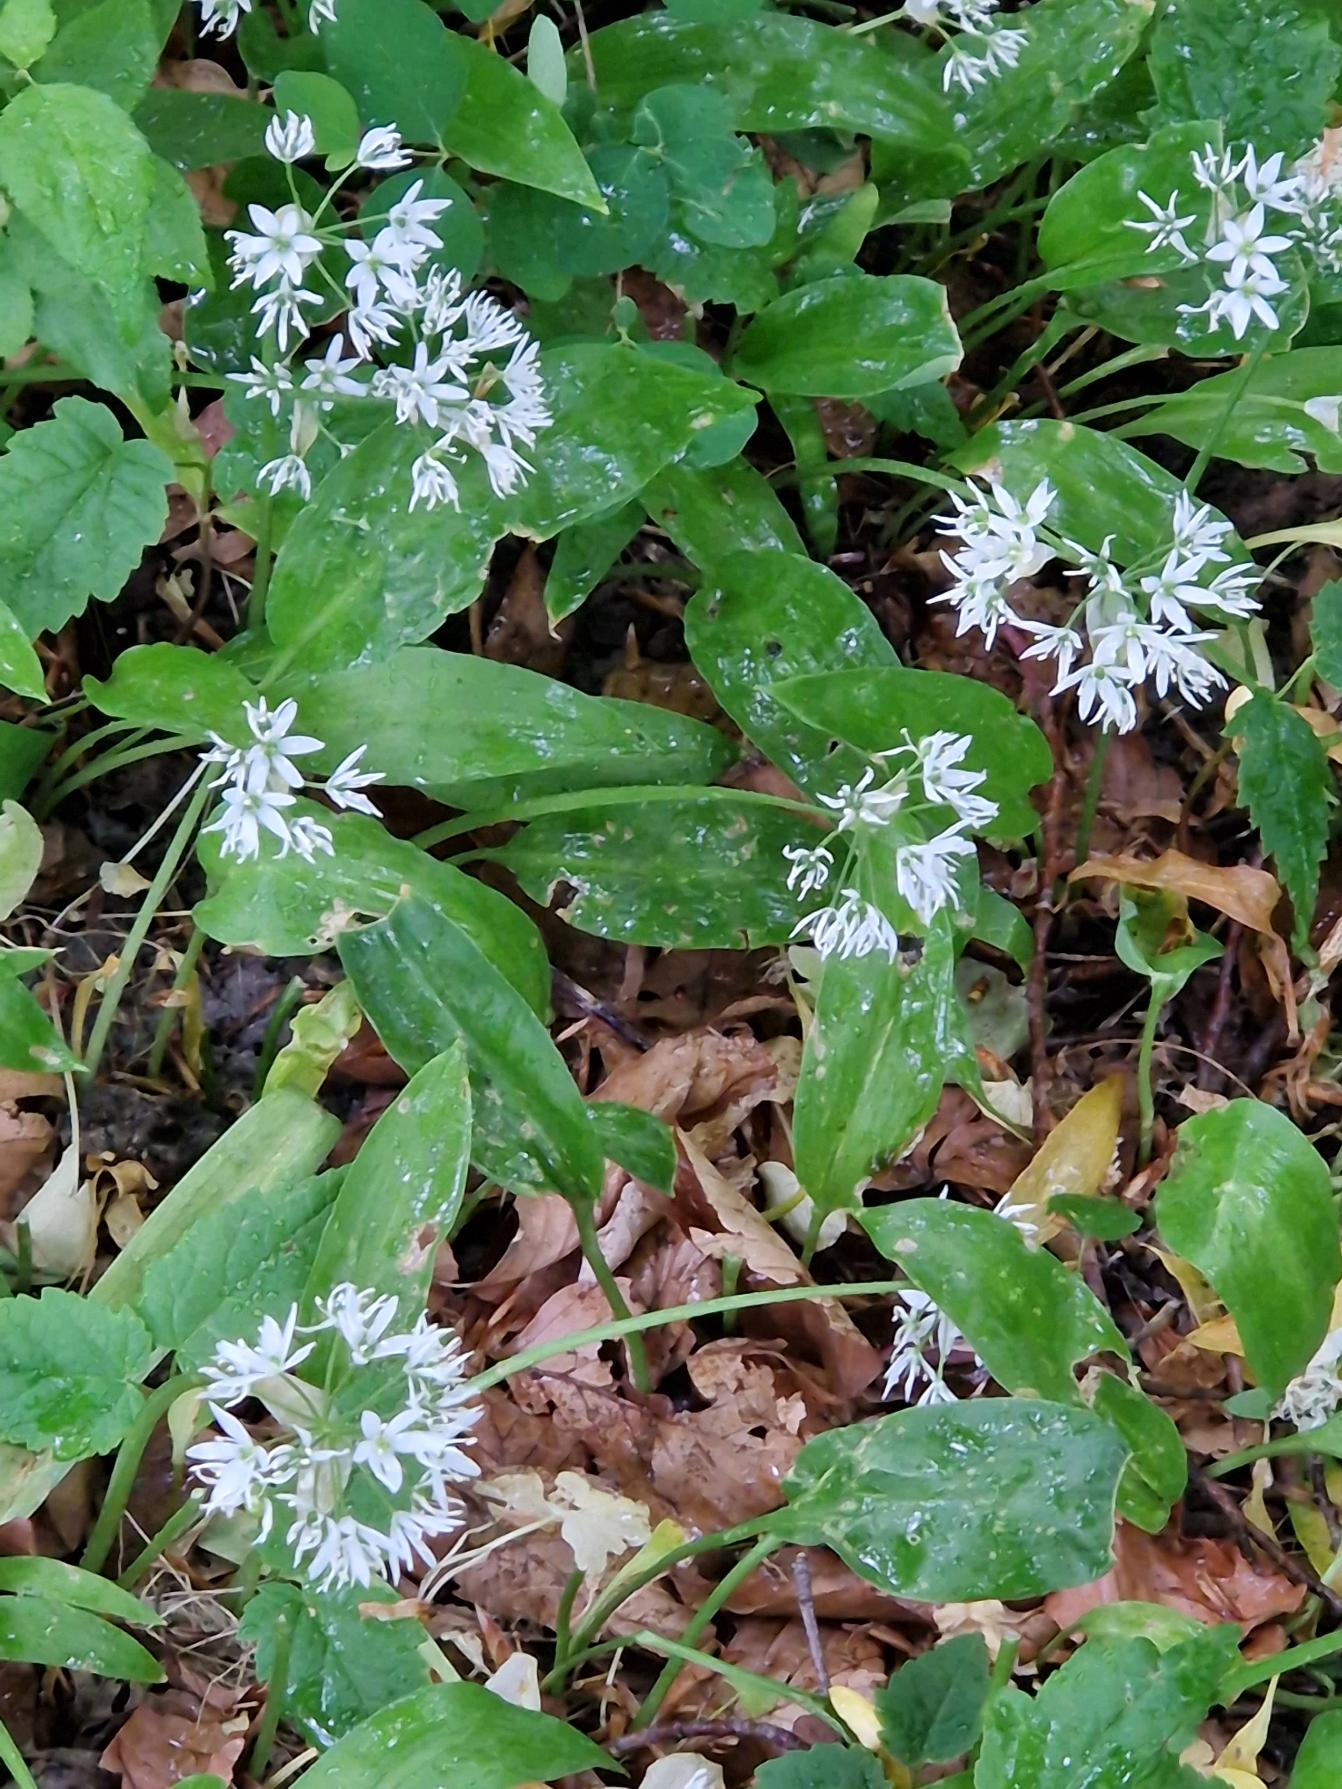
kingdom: Plantae
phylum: Tracheophyta
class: Liliopsida
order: Asparagales
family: Amaryllidaceae
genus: Allium
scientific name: Allium ursinum
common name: Rams-løg
